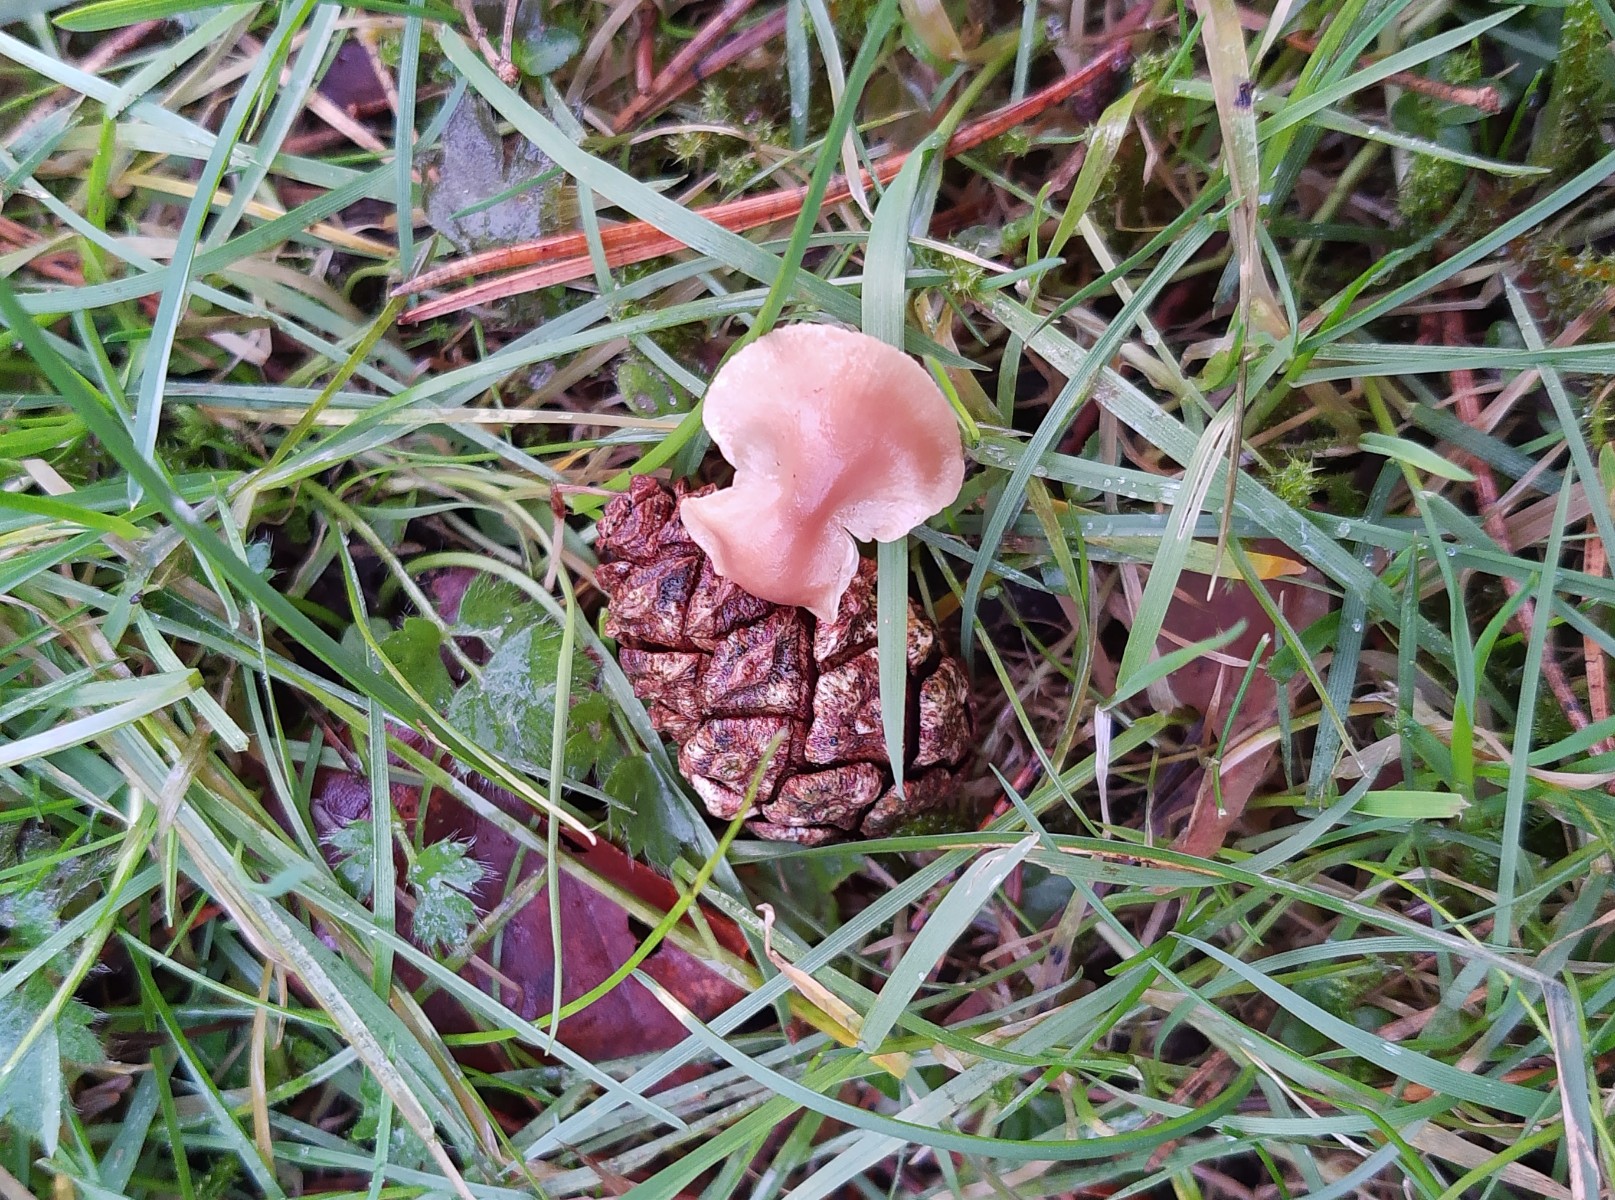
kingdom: Fungi
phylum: Basidiomycota
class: Agaricomycetes
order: Agaricales
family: Marasmiaceae
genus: Baeospora
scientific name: Baeospora myosura
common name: koglebruskhat
